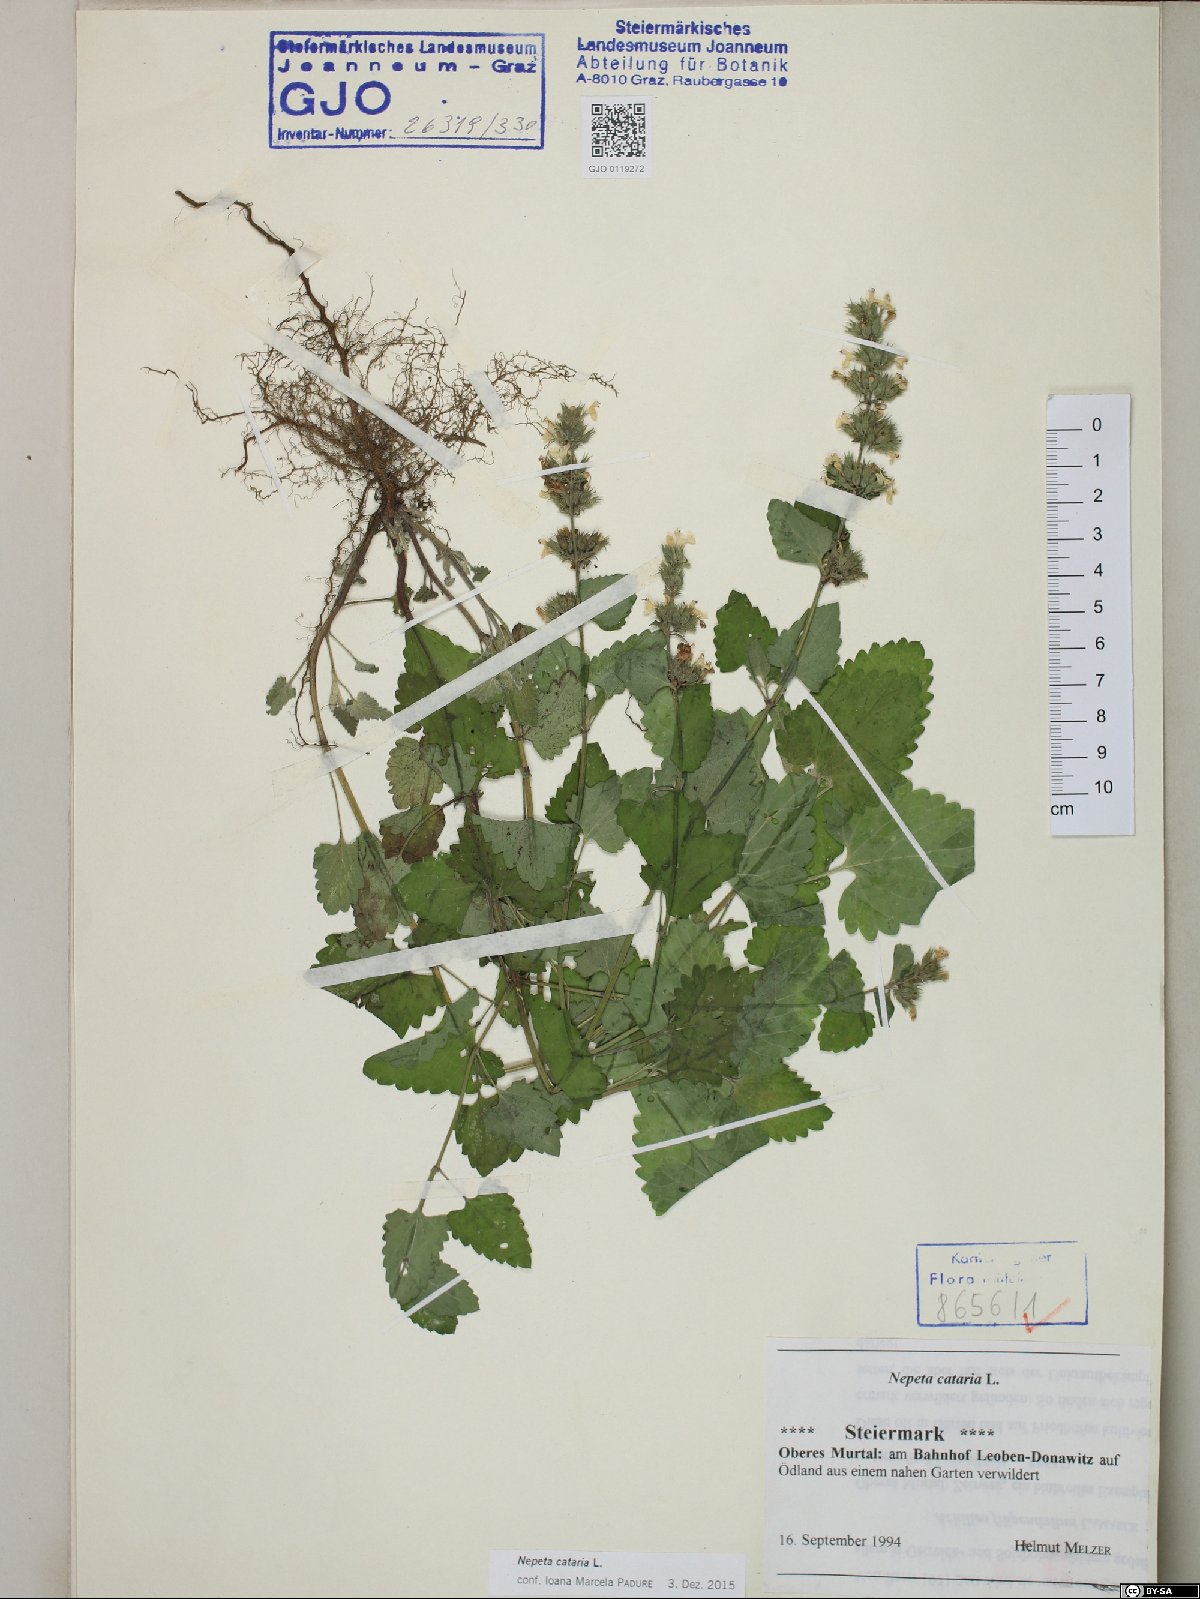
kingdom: Plantae
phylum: Tracheophyta
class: Magnoliopsida
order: Lamiales
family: Lamiaceae
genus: Nepeta
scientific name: Nepeta cataria
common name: Catnip
